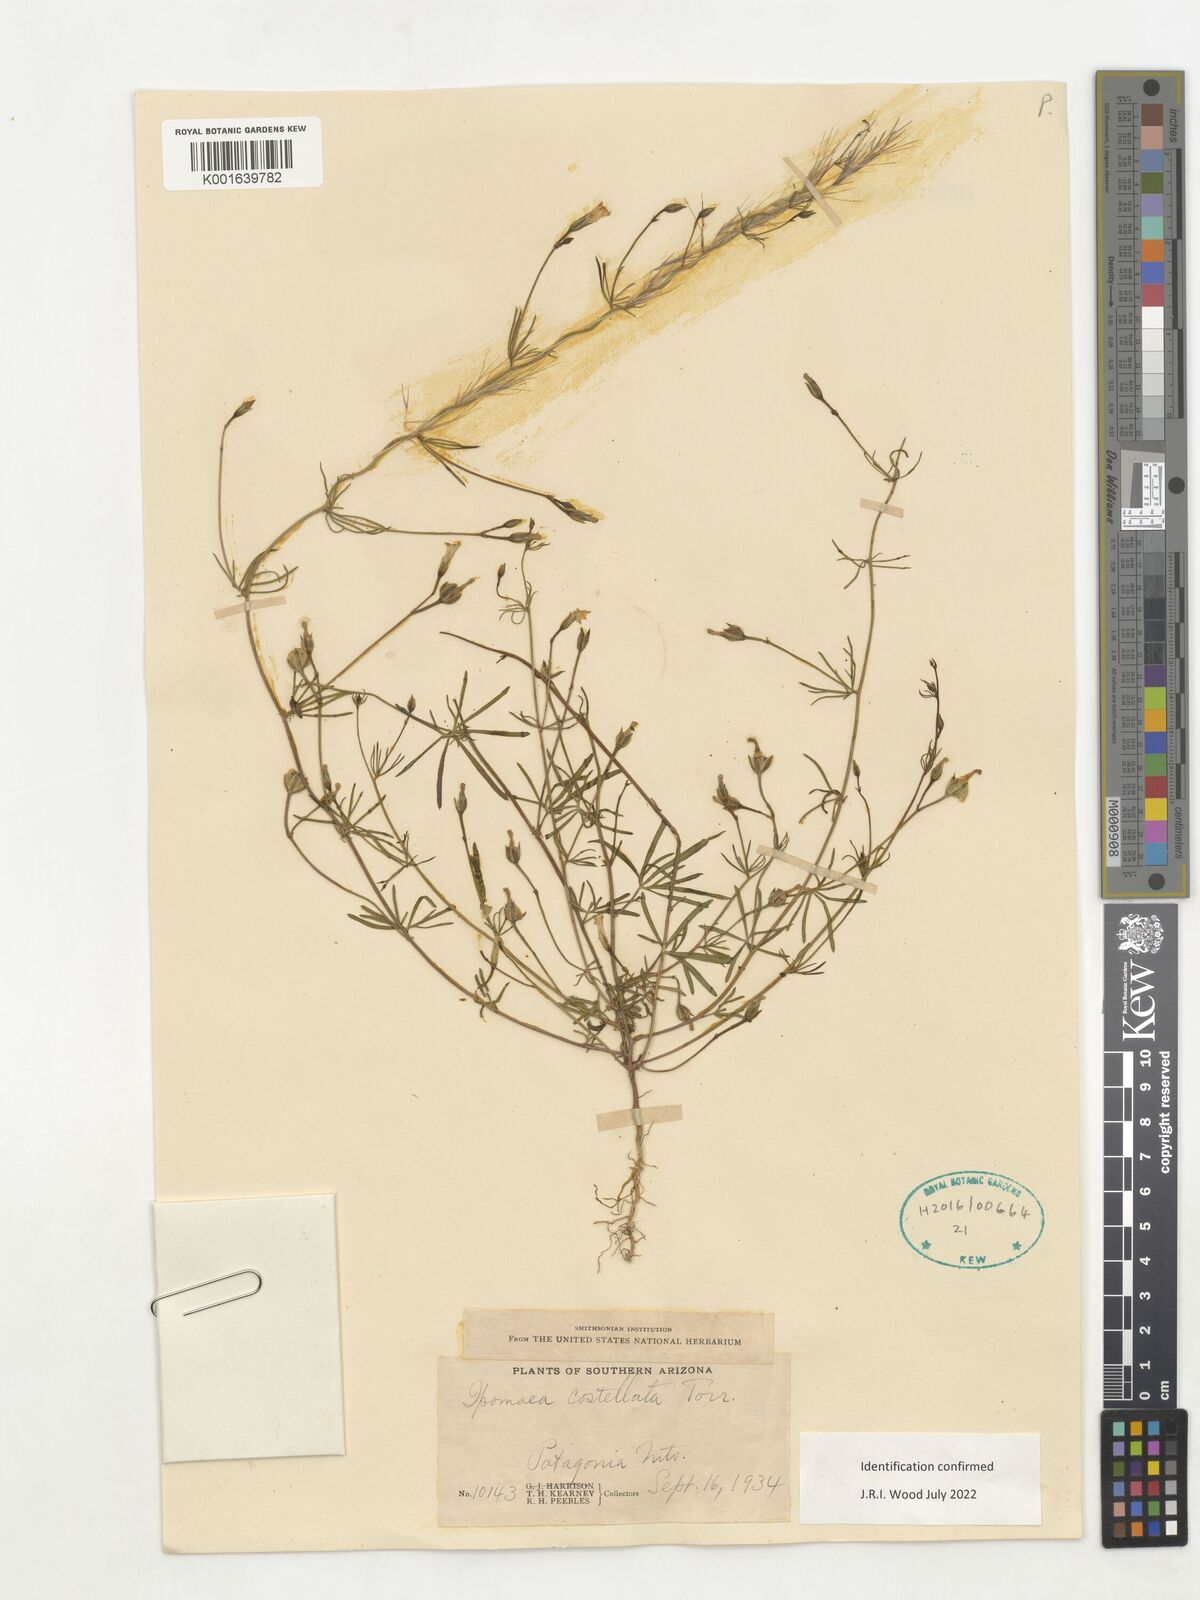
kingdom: Plantae
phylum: Tracheophyta
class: Magnoliopsida
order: Solanales
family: Convolvulaceae
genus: Ipomoea
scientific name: Ipomoea costellata
